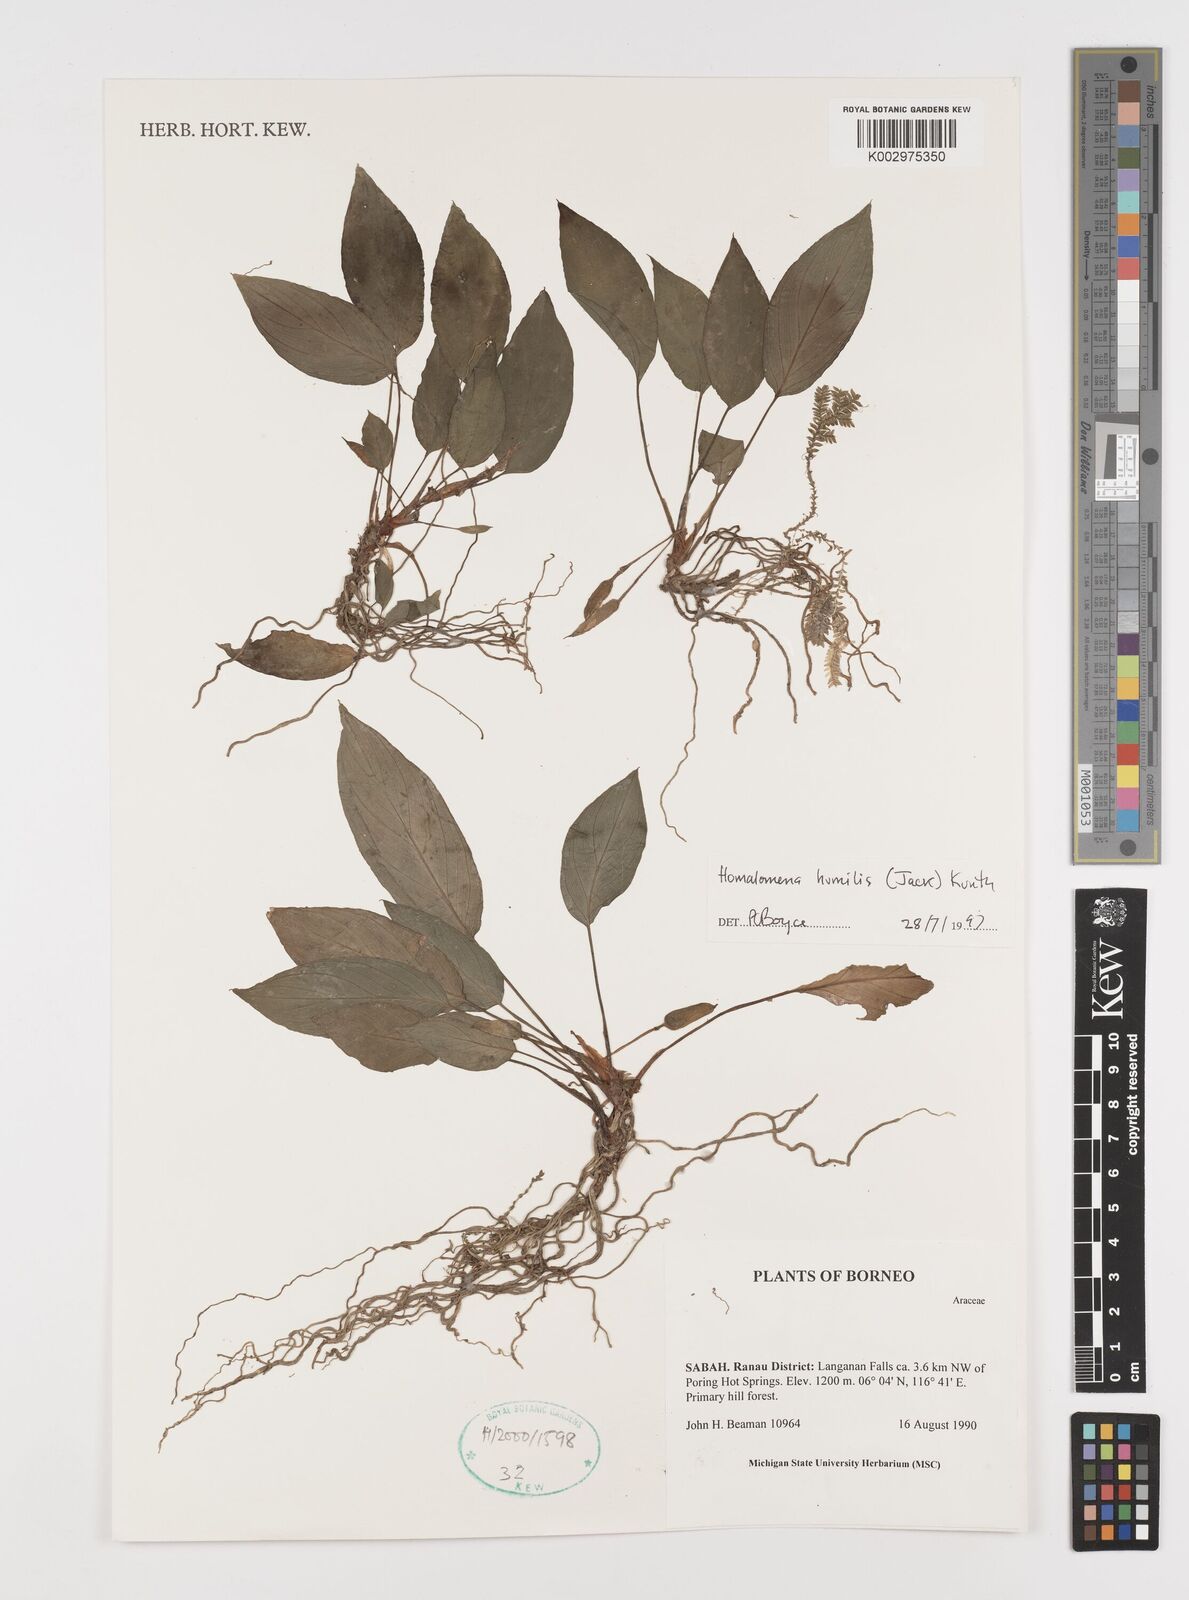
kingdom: Plantae
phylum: Tracheophyta
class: Liliopsida
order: Alismatales
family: Araceae
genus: Homalomena
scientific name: Homalomena humilis
